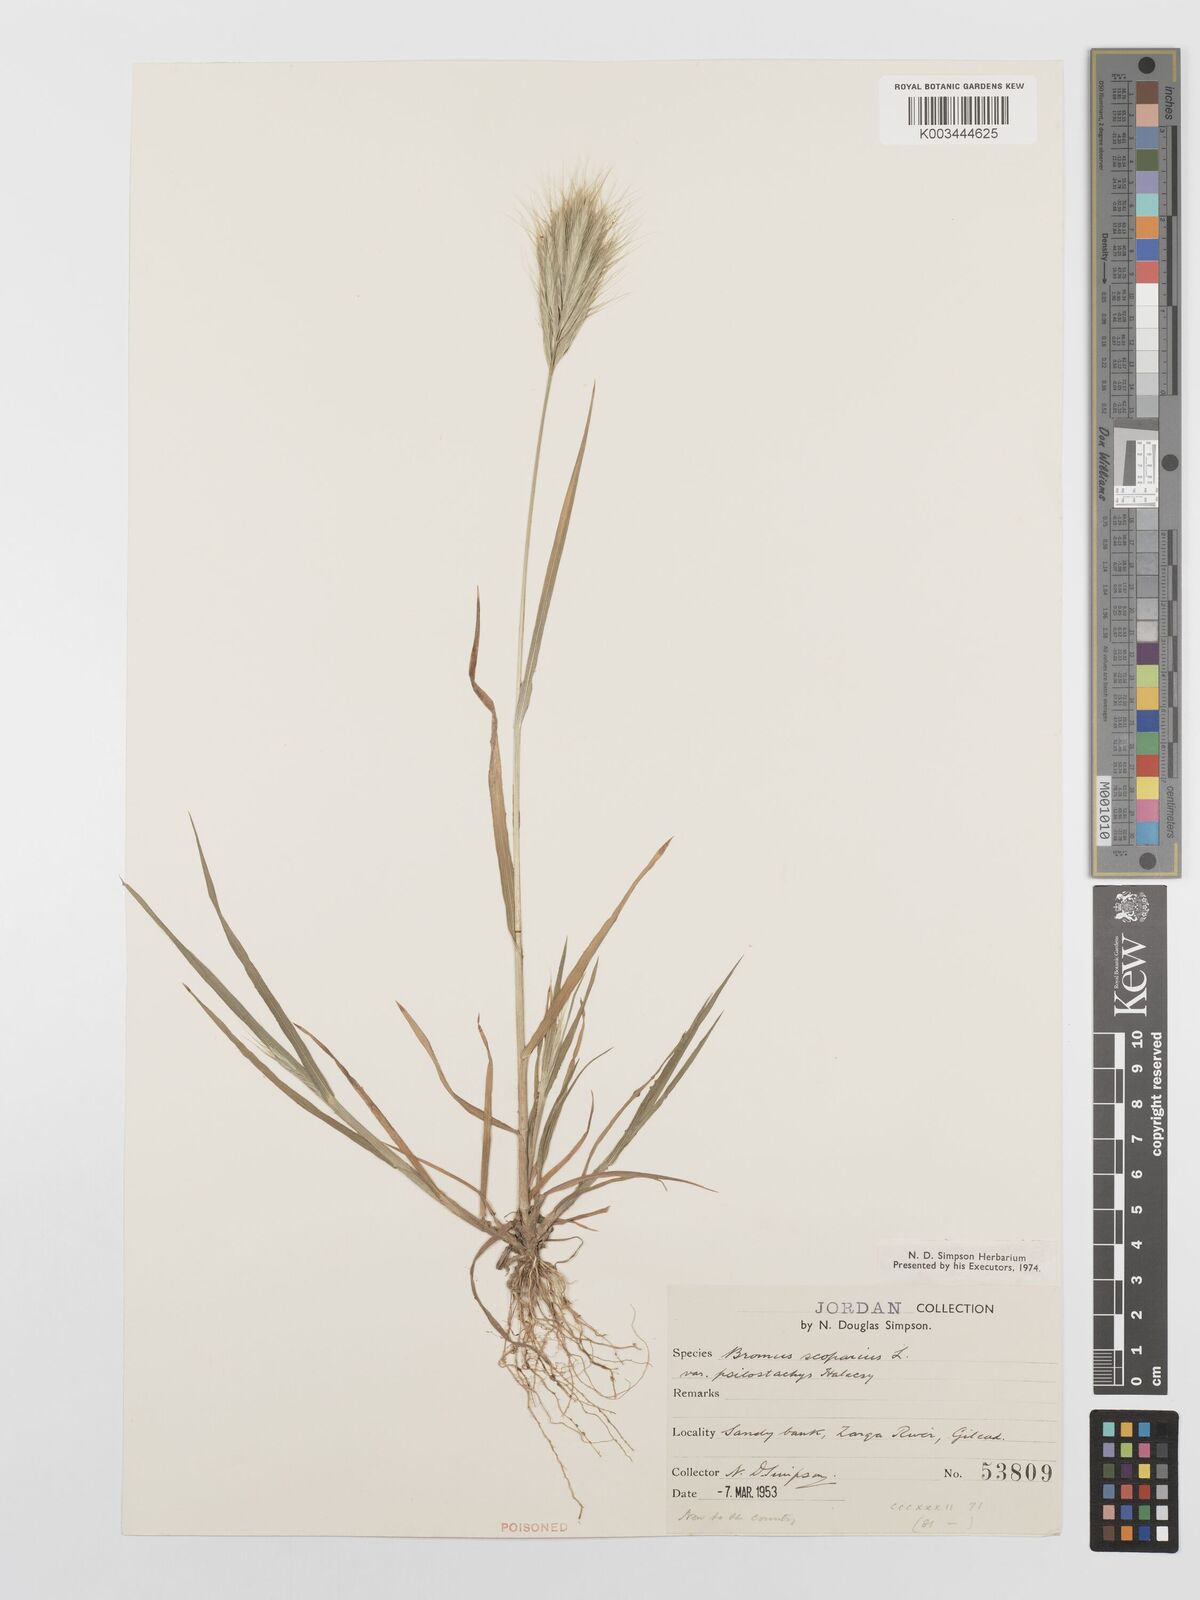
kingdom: Plantae
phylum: Tracheophyta
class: Liliopsida
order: Poales
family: Poaceae
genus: Bromus
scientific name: Bromus scoparius
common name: Broom brome
